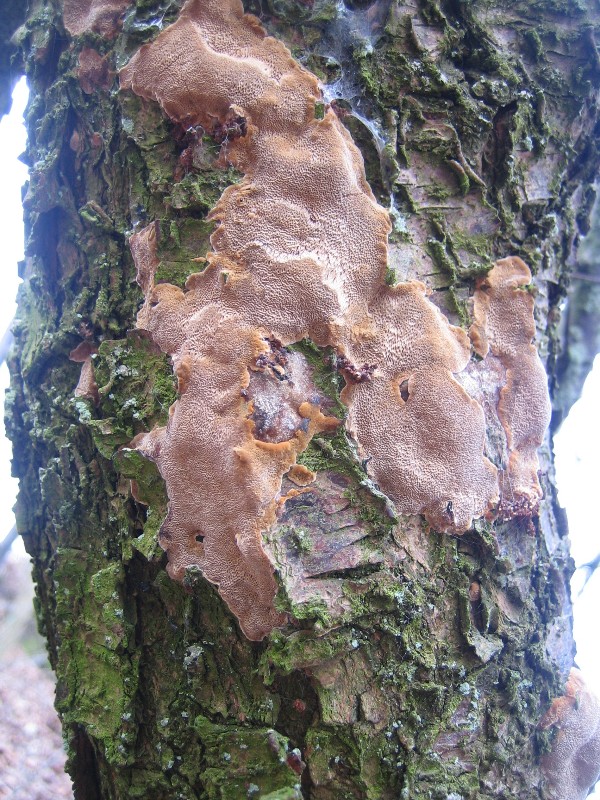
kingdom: Fungi
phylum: Basidiomycota
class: Agaricomycetes
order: Hymenochaetales
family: Hymenochaetaceae
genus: Phellinus
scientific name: Phellinus pomaceus
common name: blomme-ildporesvamp
